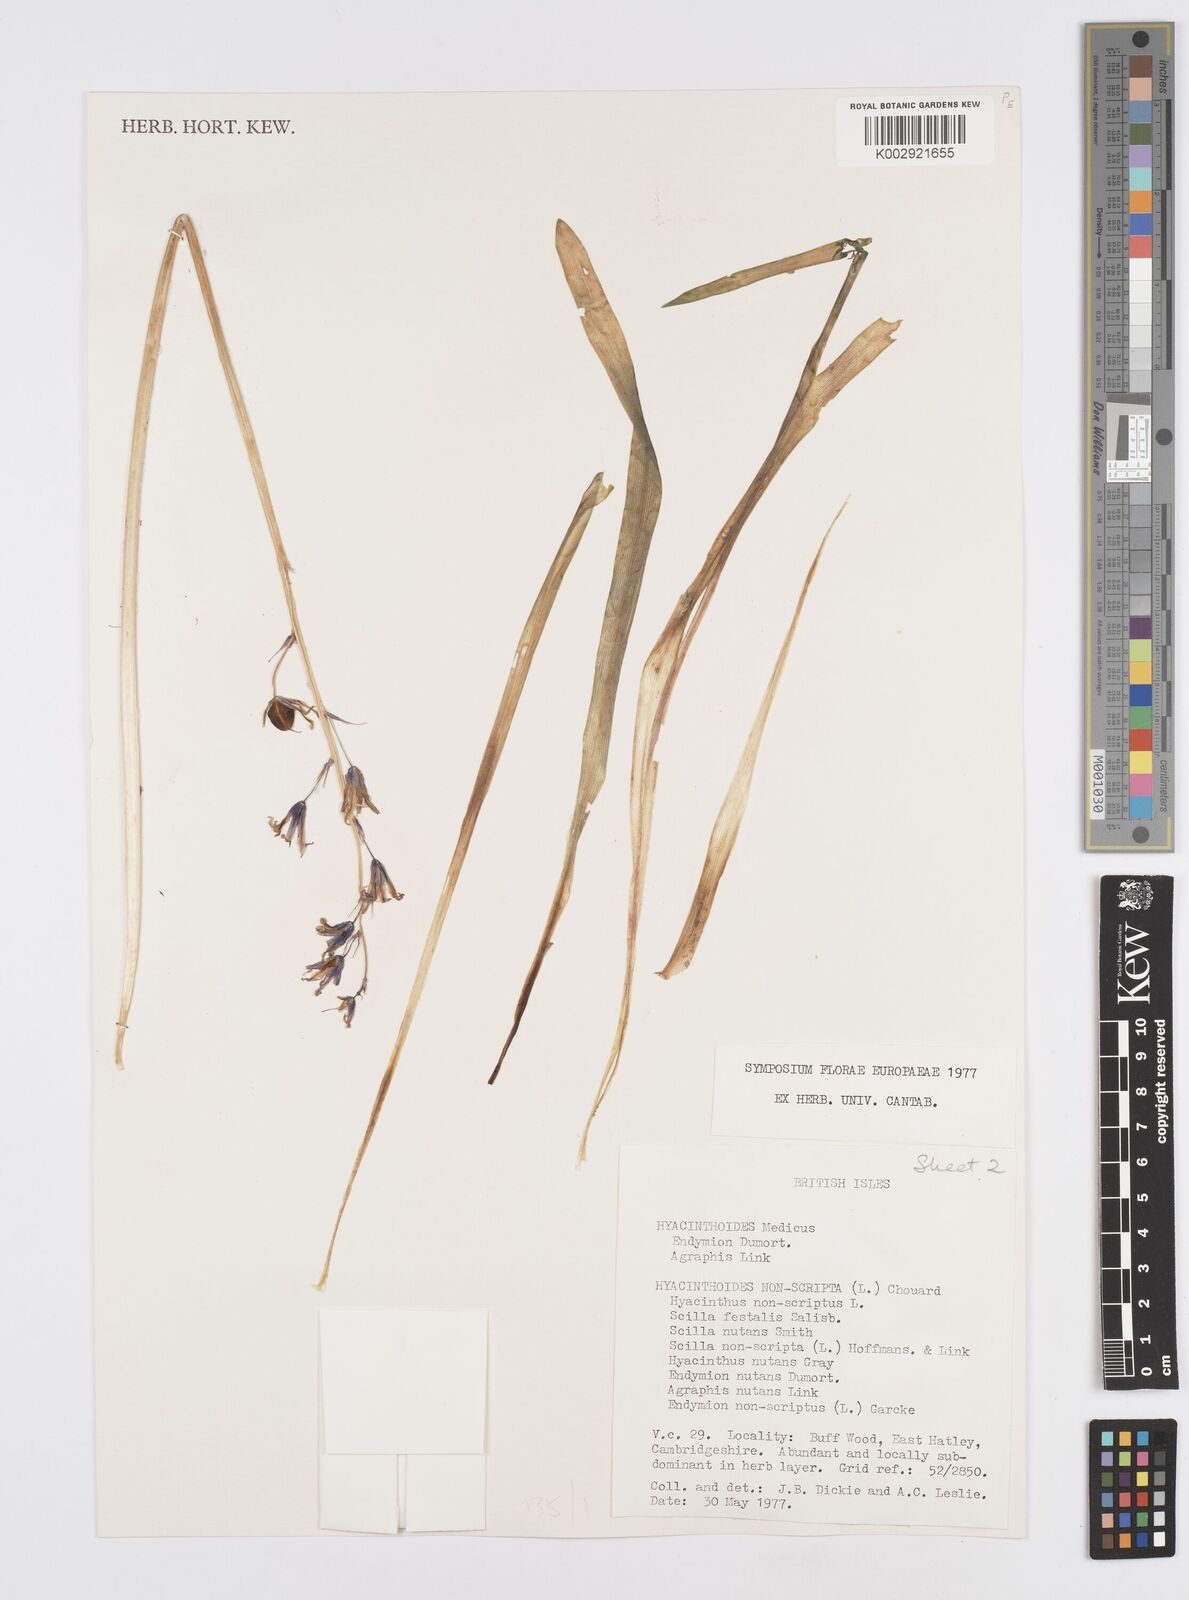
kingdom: Plantae
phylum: Tracheophyta
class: Liliopsida
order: Asparagales
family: Asparagaceae
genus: Hyacinthoides
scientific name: Hyacinthoides non-scripta
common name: Bluebell
